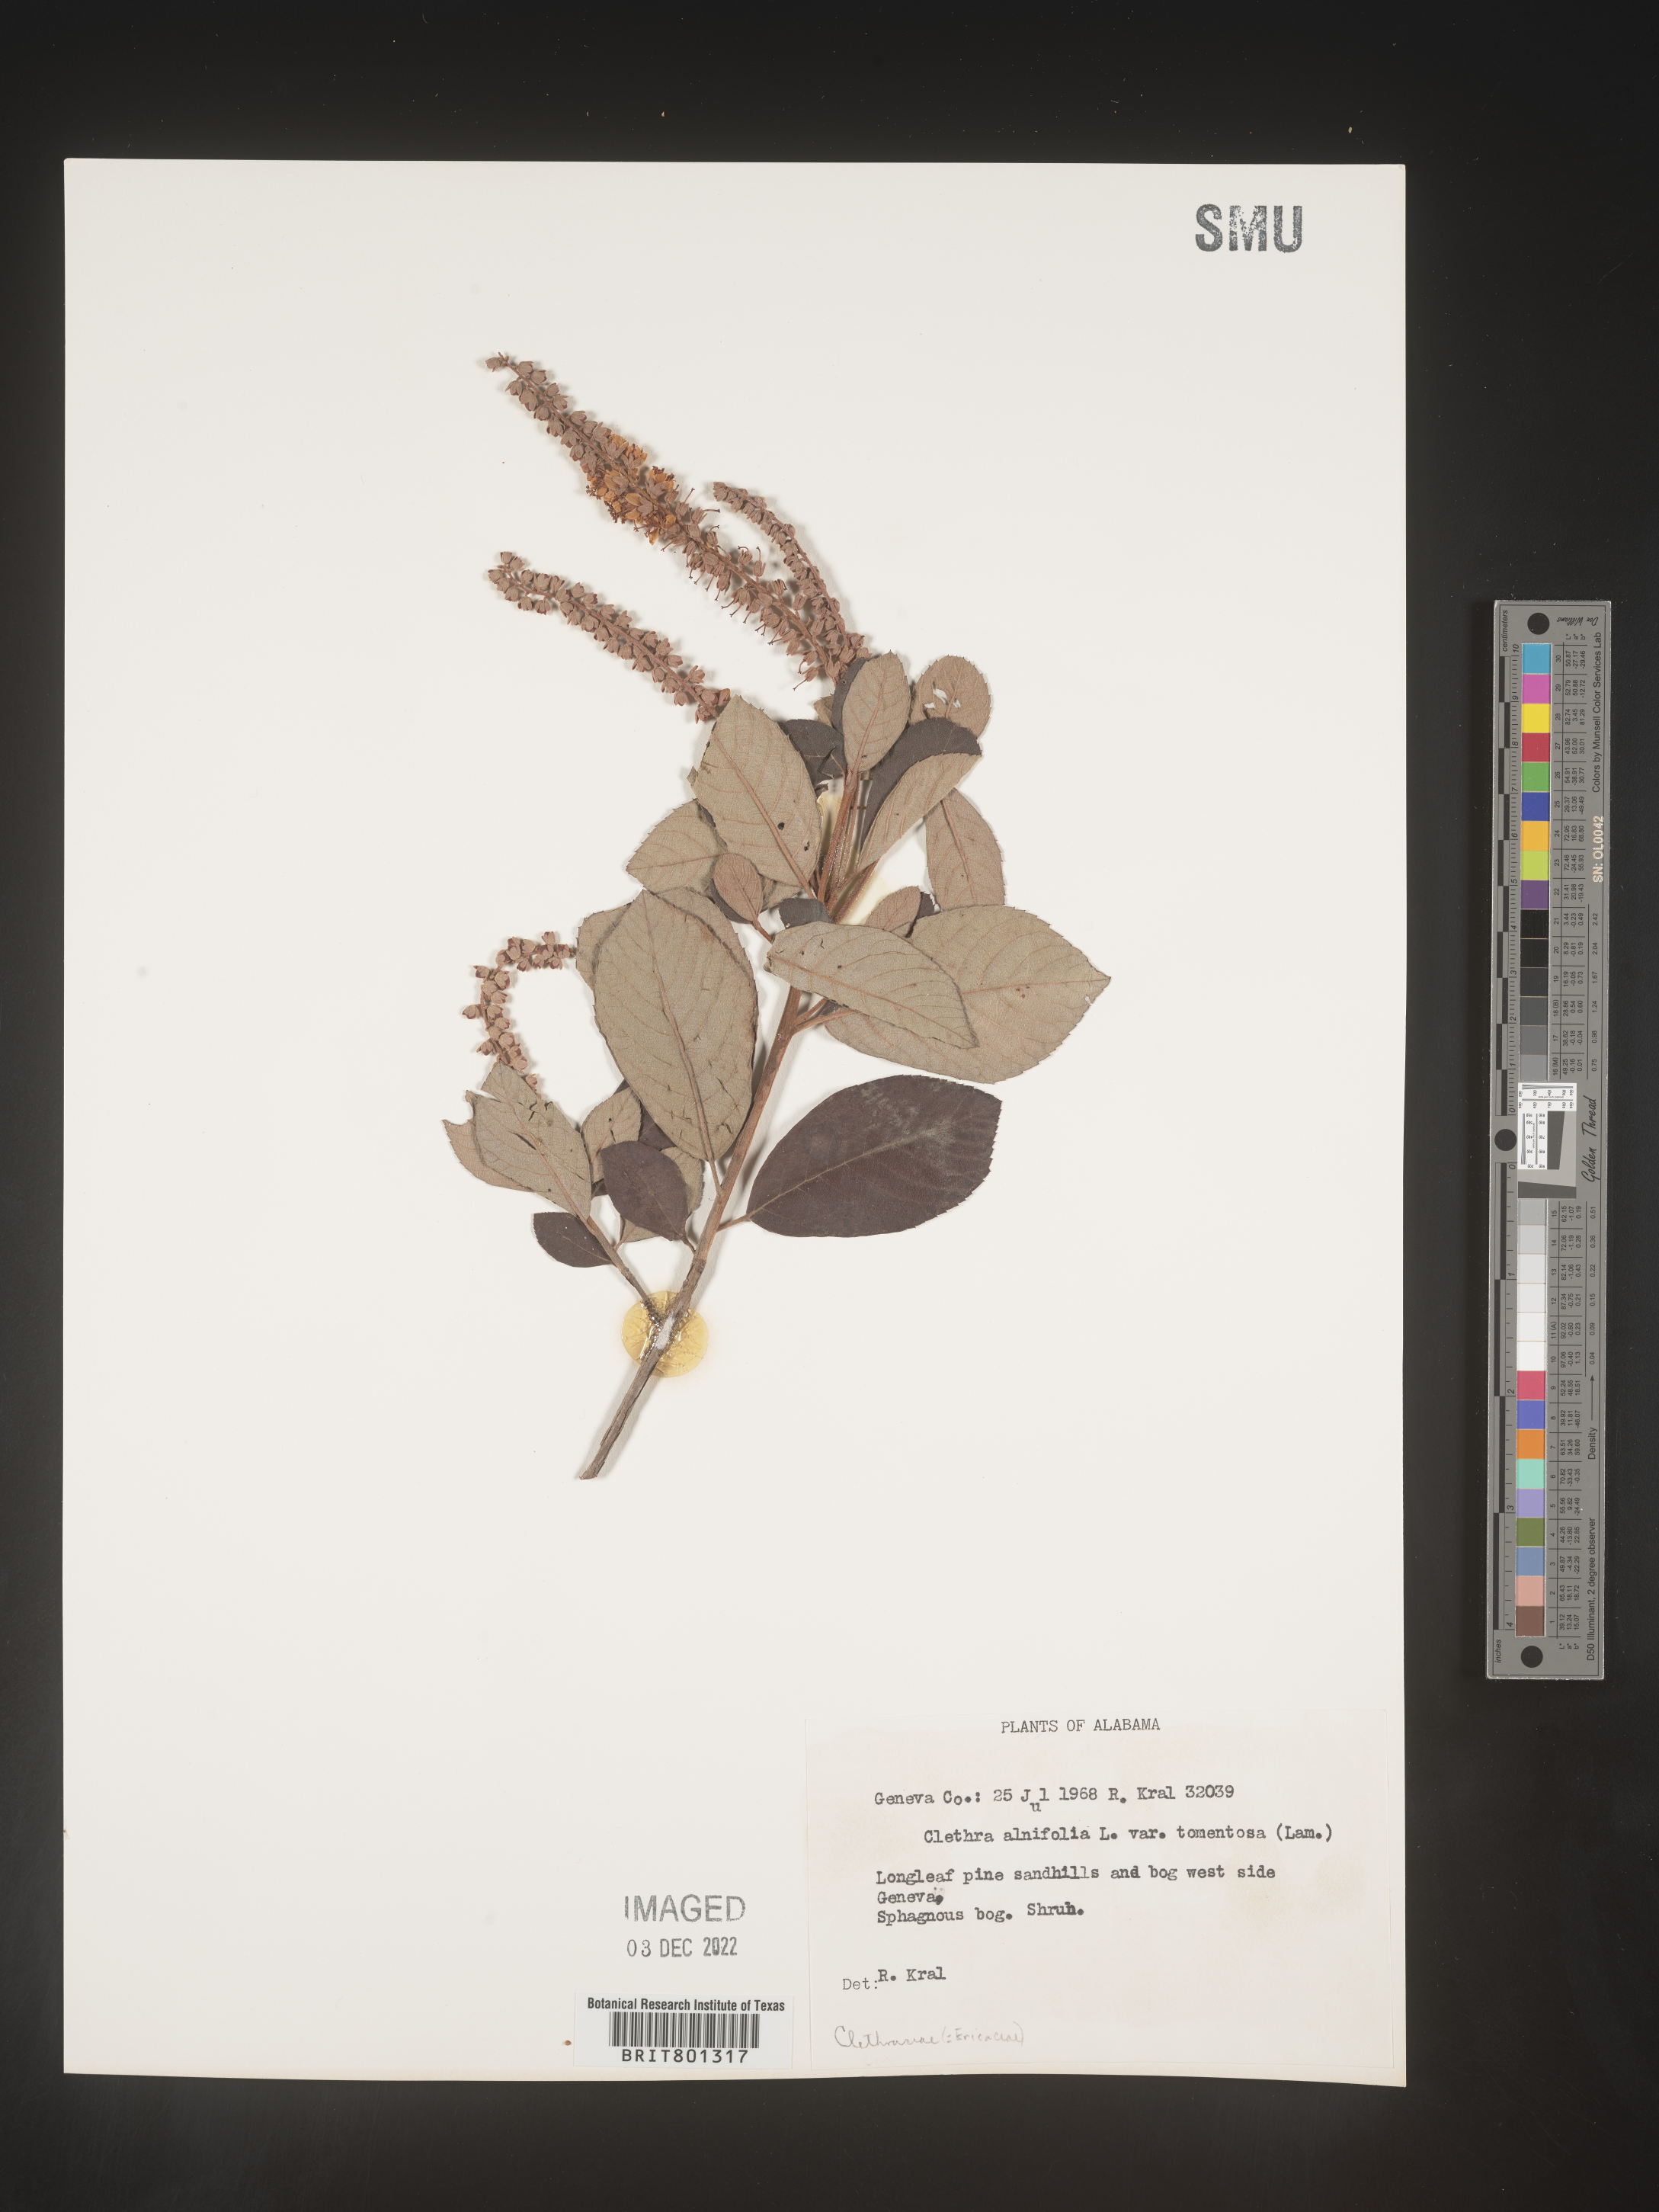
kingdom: Plantae
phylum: Tracheophyta
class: Magnoliopsida
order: Ericales
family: Clethraceae
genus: Clethra
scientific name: Clethra alnifolia
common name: Sweet pepperbush
